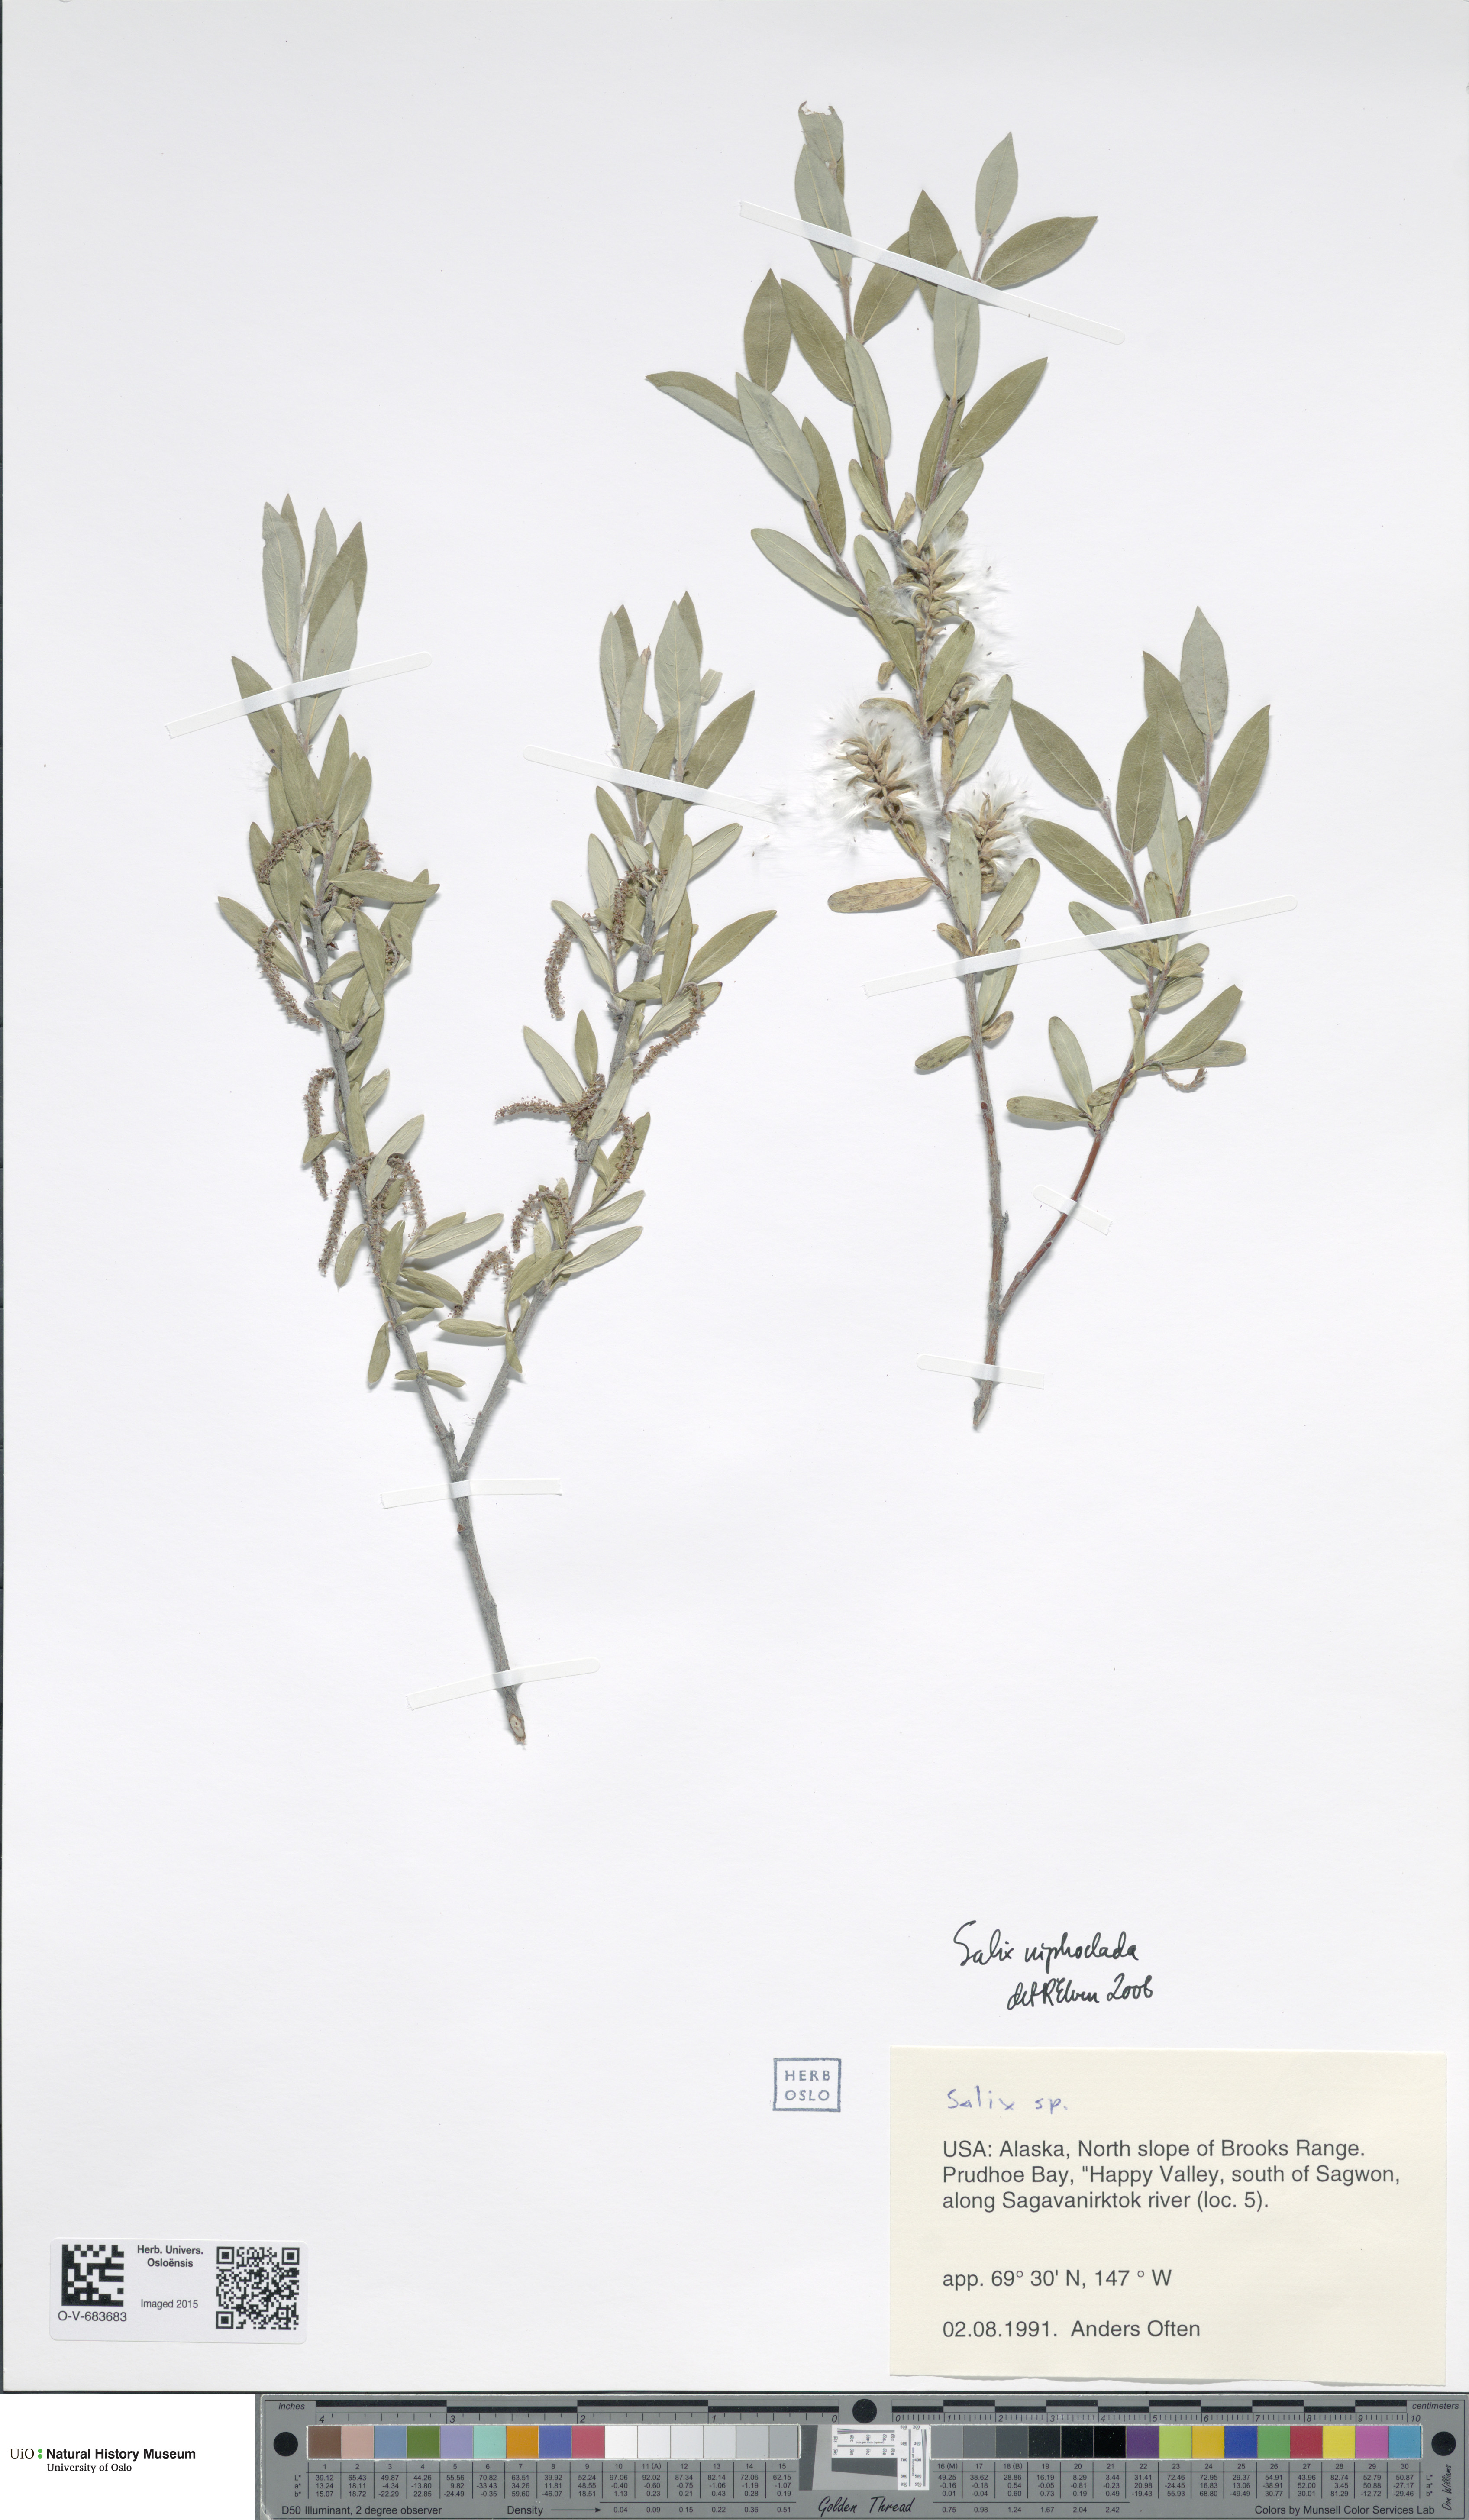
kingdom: Plantae
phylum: Tracheophyta
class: Magnoliopsida
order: Malpighiales
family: Salicaceae
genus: Salix
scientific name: Salix niphoclada
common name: Barren-ground willow
